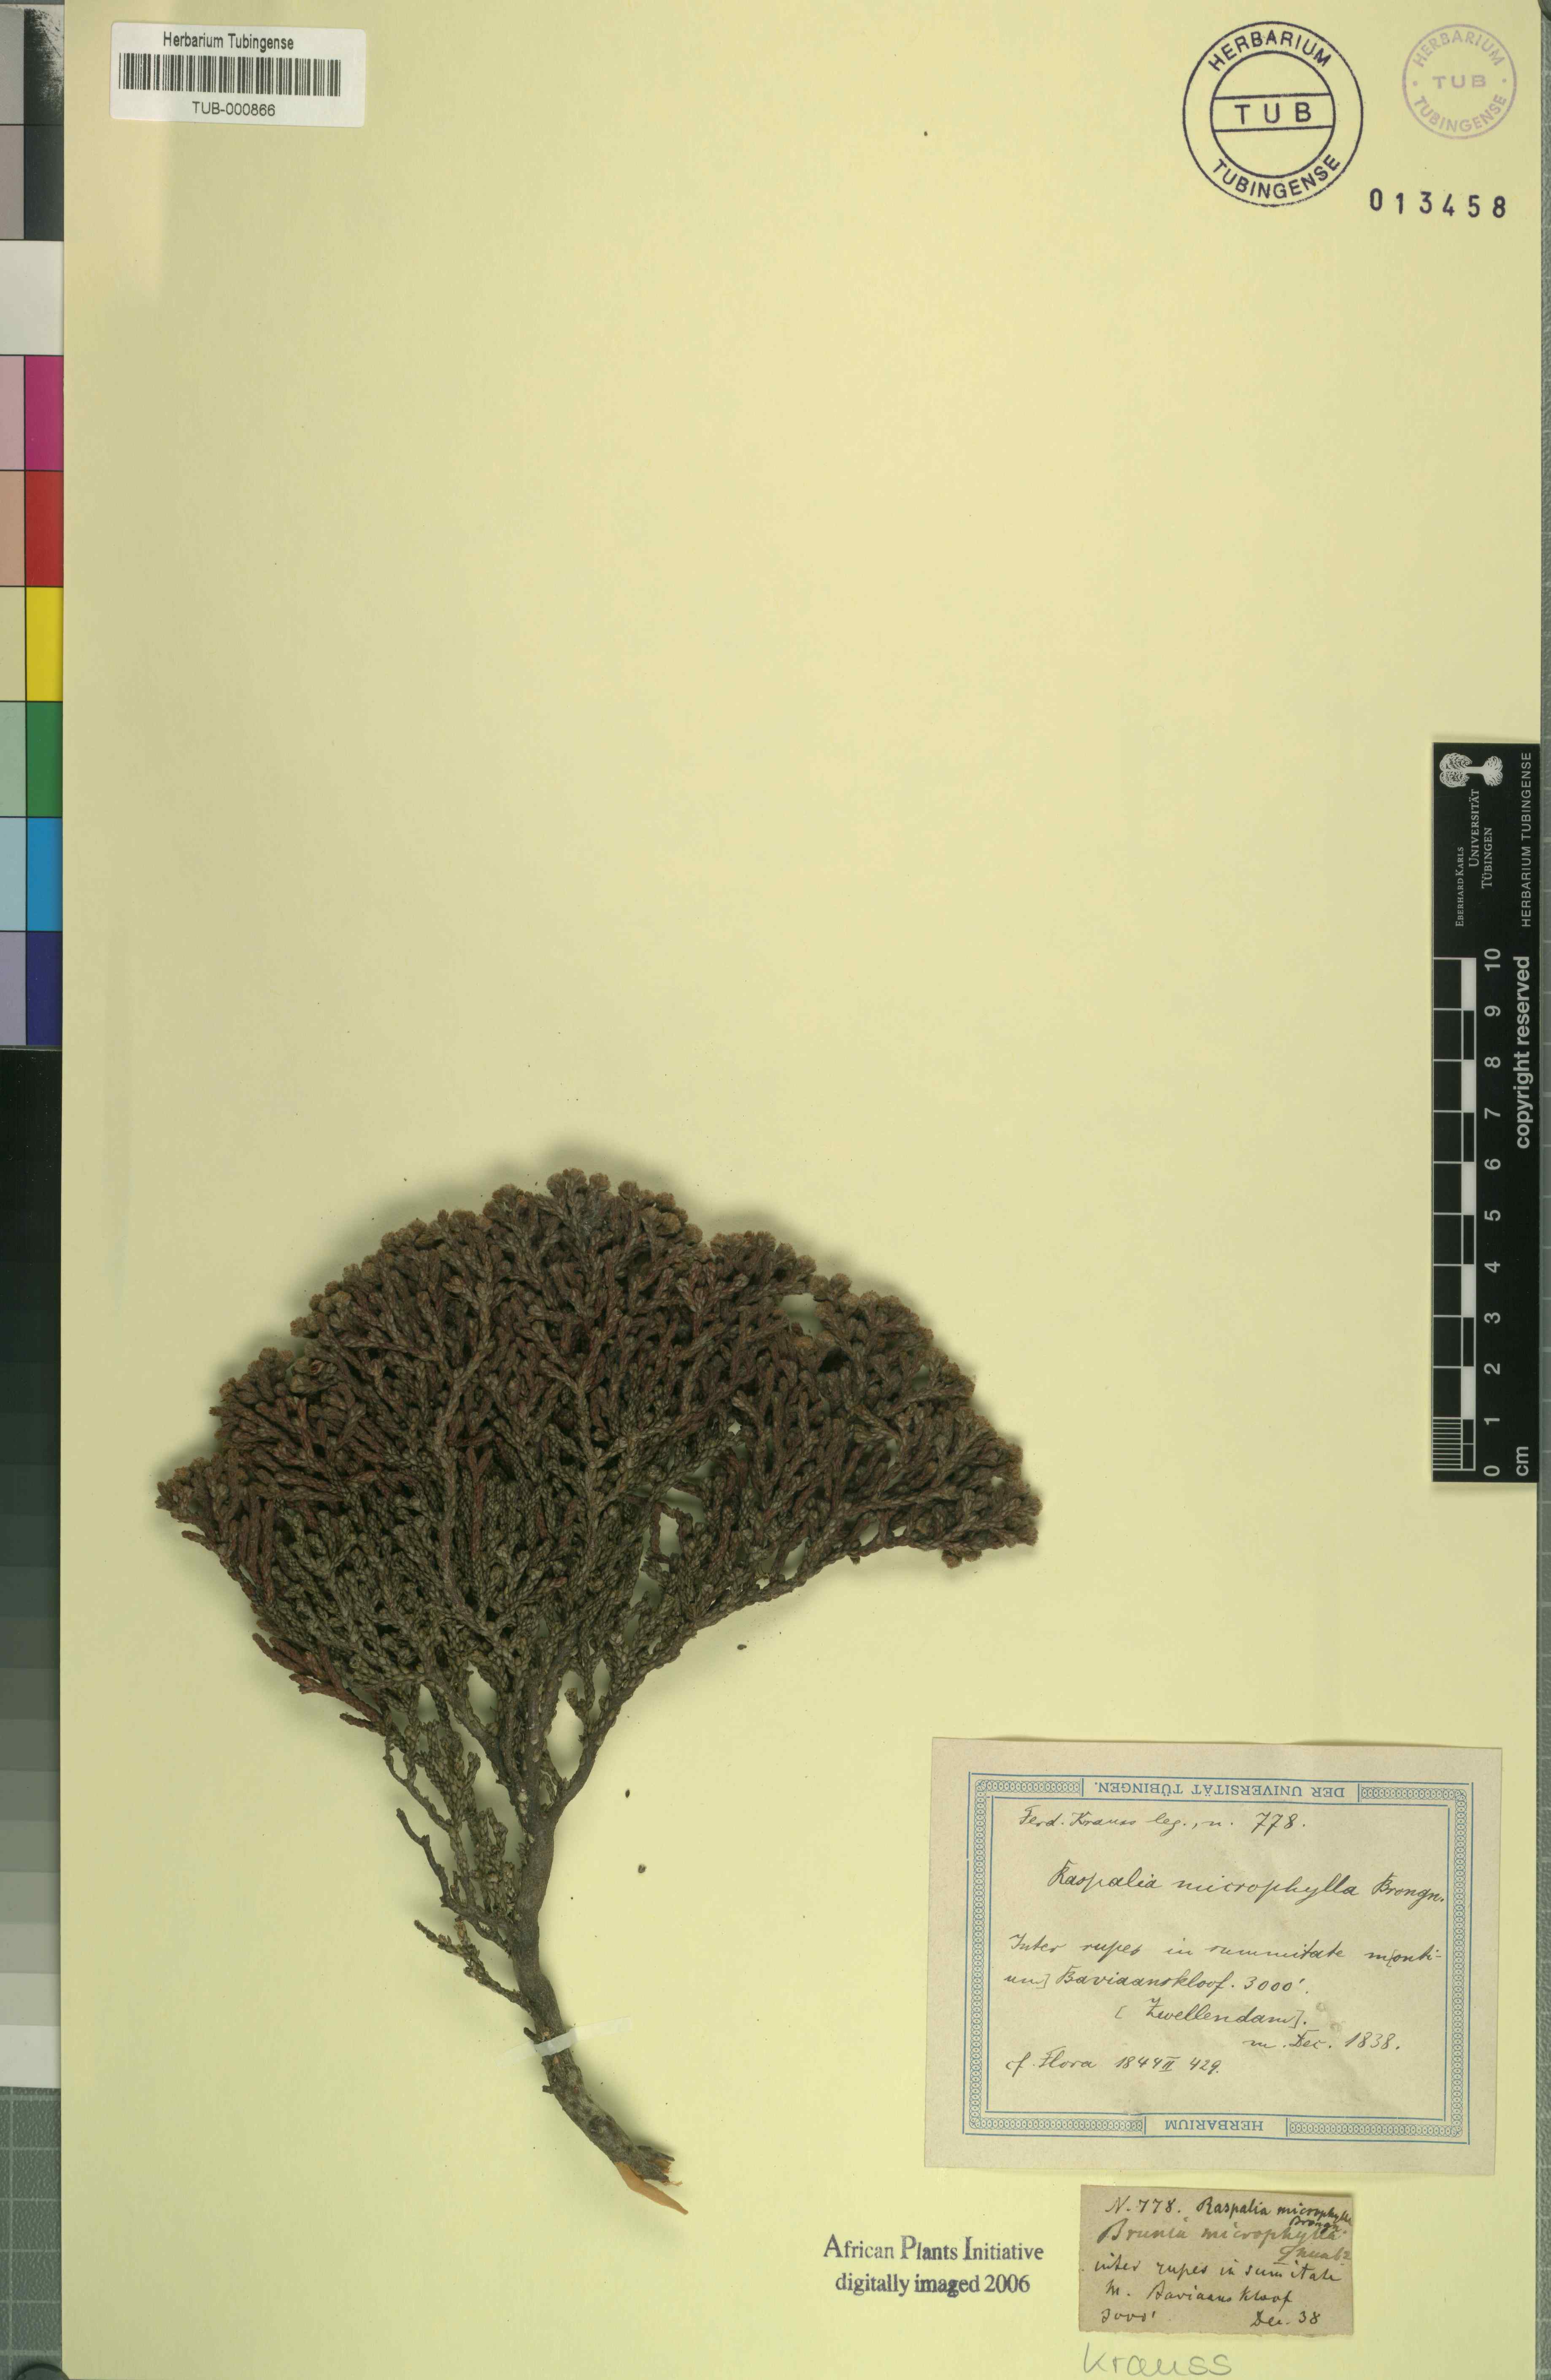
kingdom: Plantae
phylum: Tracheophyta
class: Magnoliopsida
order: Bruniales
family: Bruniaceae
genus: Brunia
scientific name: Brunia microphylla
